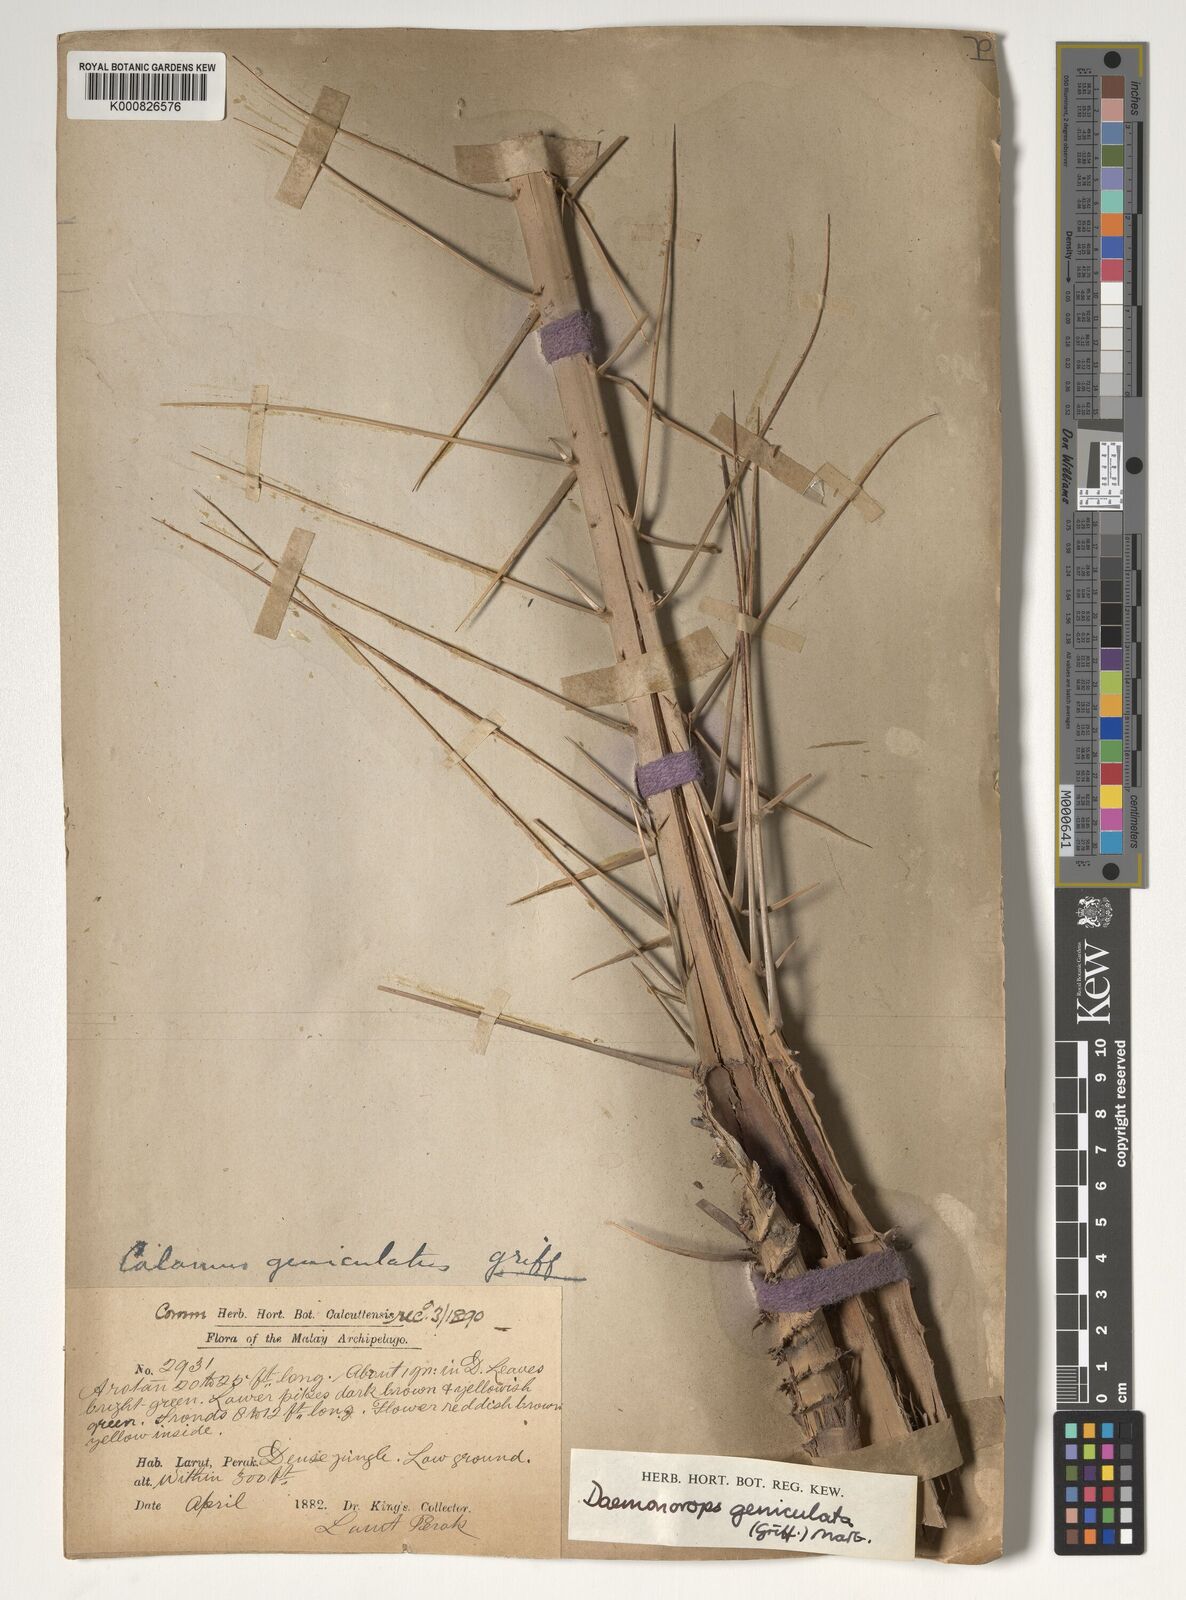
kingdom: Plantae
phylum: Tracheophyta
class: Liliopsida
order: Arecales
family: Arecaceae
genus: Calamus
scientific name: Calamus geniculatus
